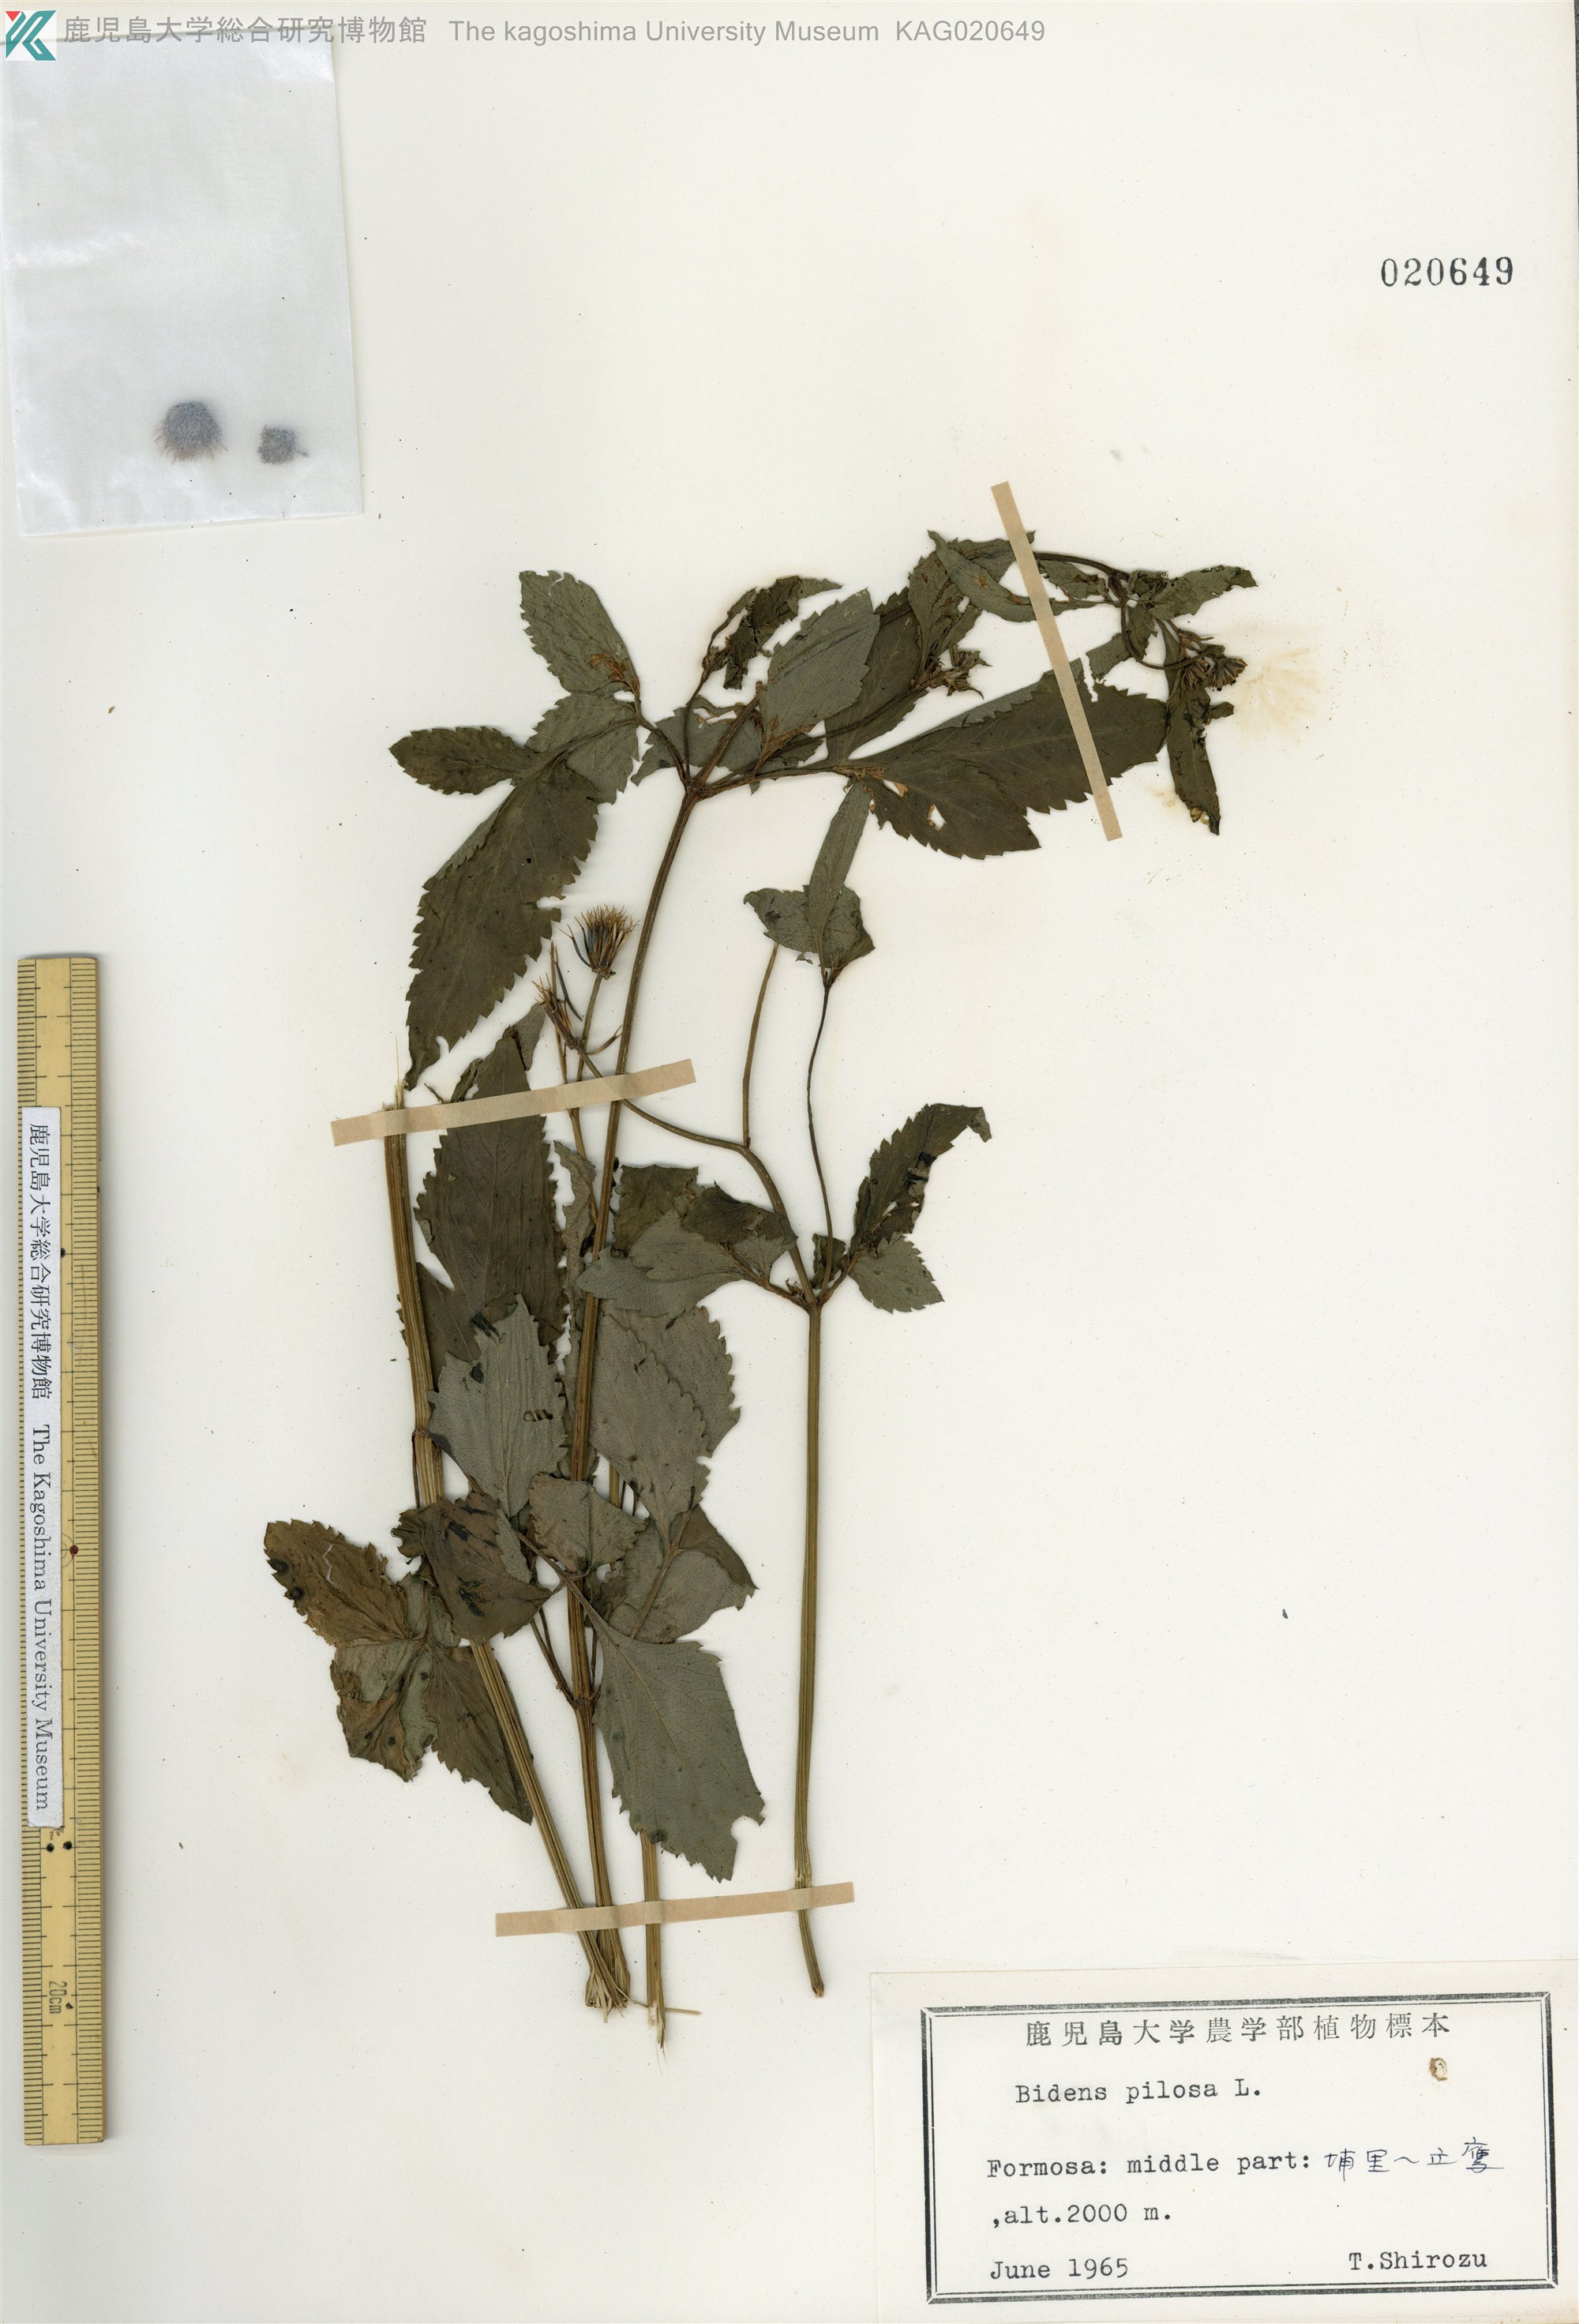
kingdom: Plantae
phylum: Tracheophyta
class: Magnoliopsida
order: Asterales
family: Asteraceae
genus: Bidens
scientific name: Bidens pilosa
